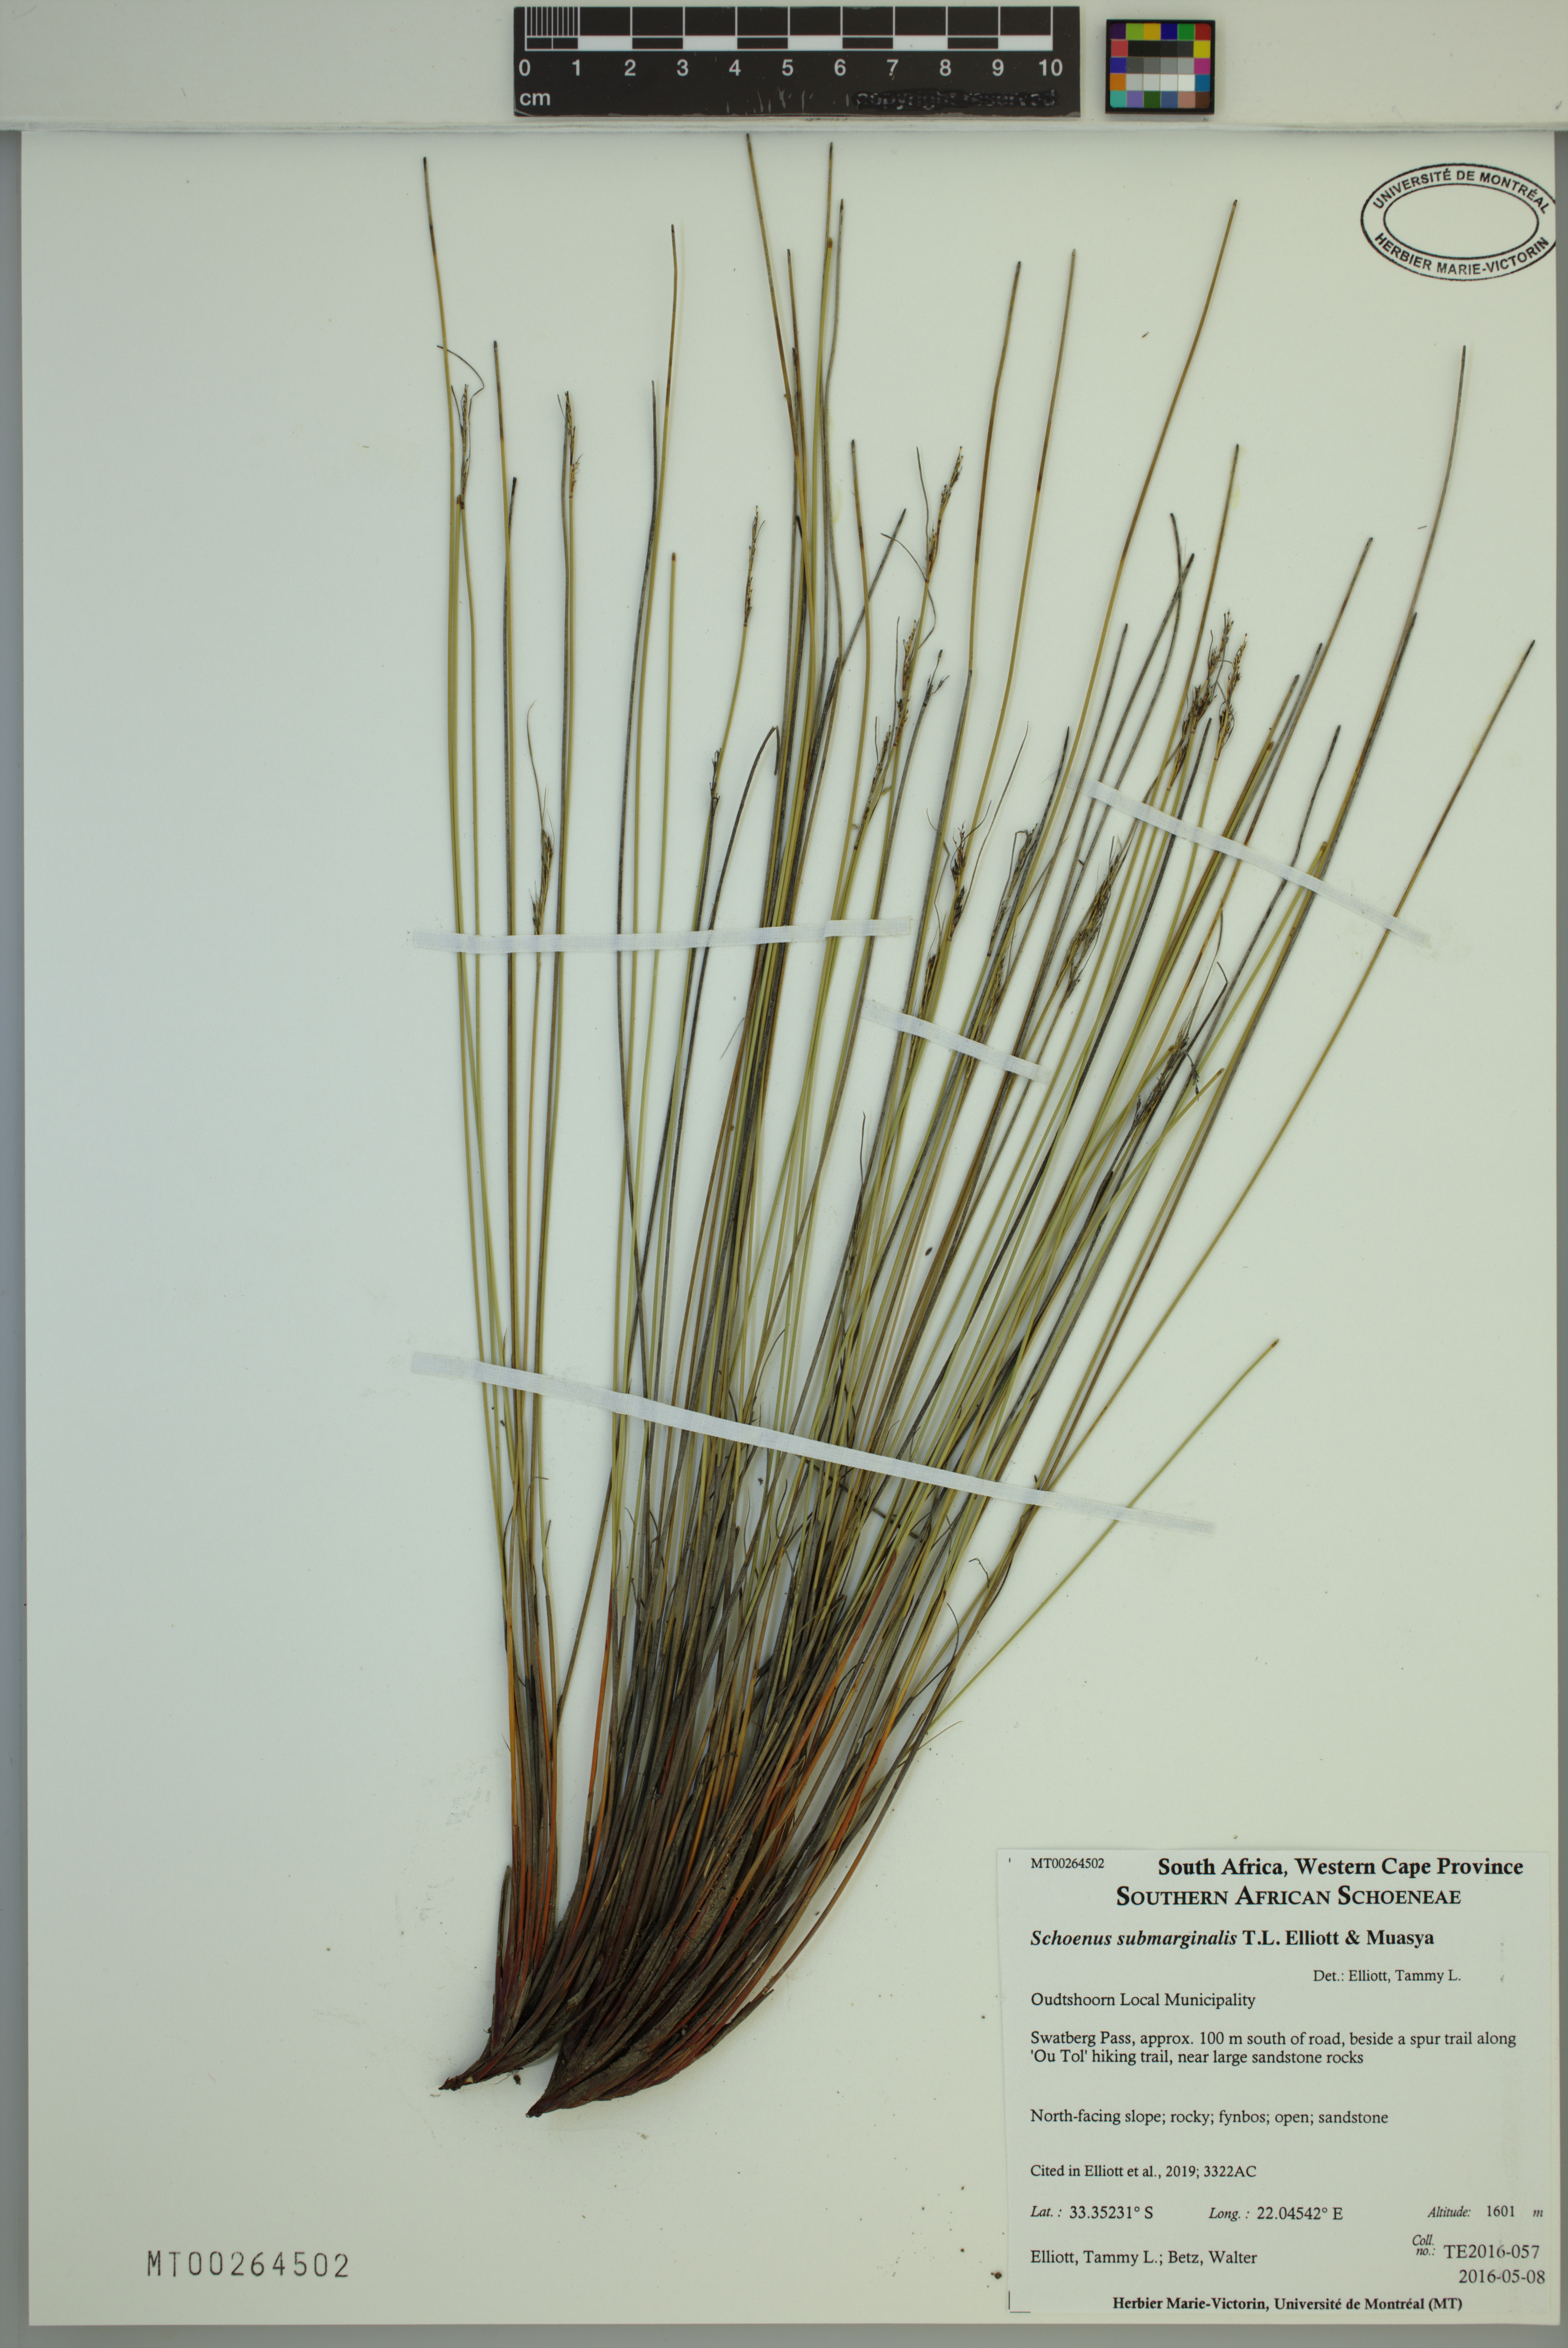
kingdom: Plantae
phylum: Tracheophyta
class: Liliopsida
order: Poales
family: Cyperaceae
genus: Schoenus
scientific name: Schoenus submarginalis
